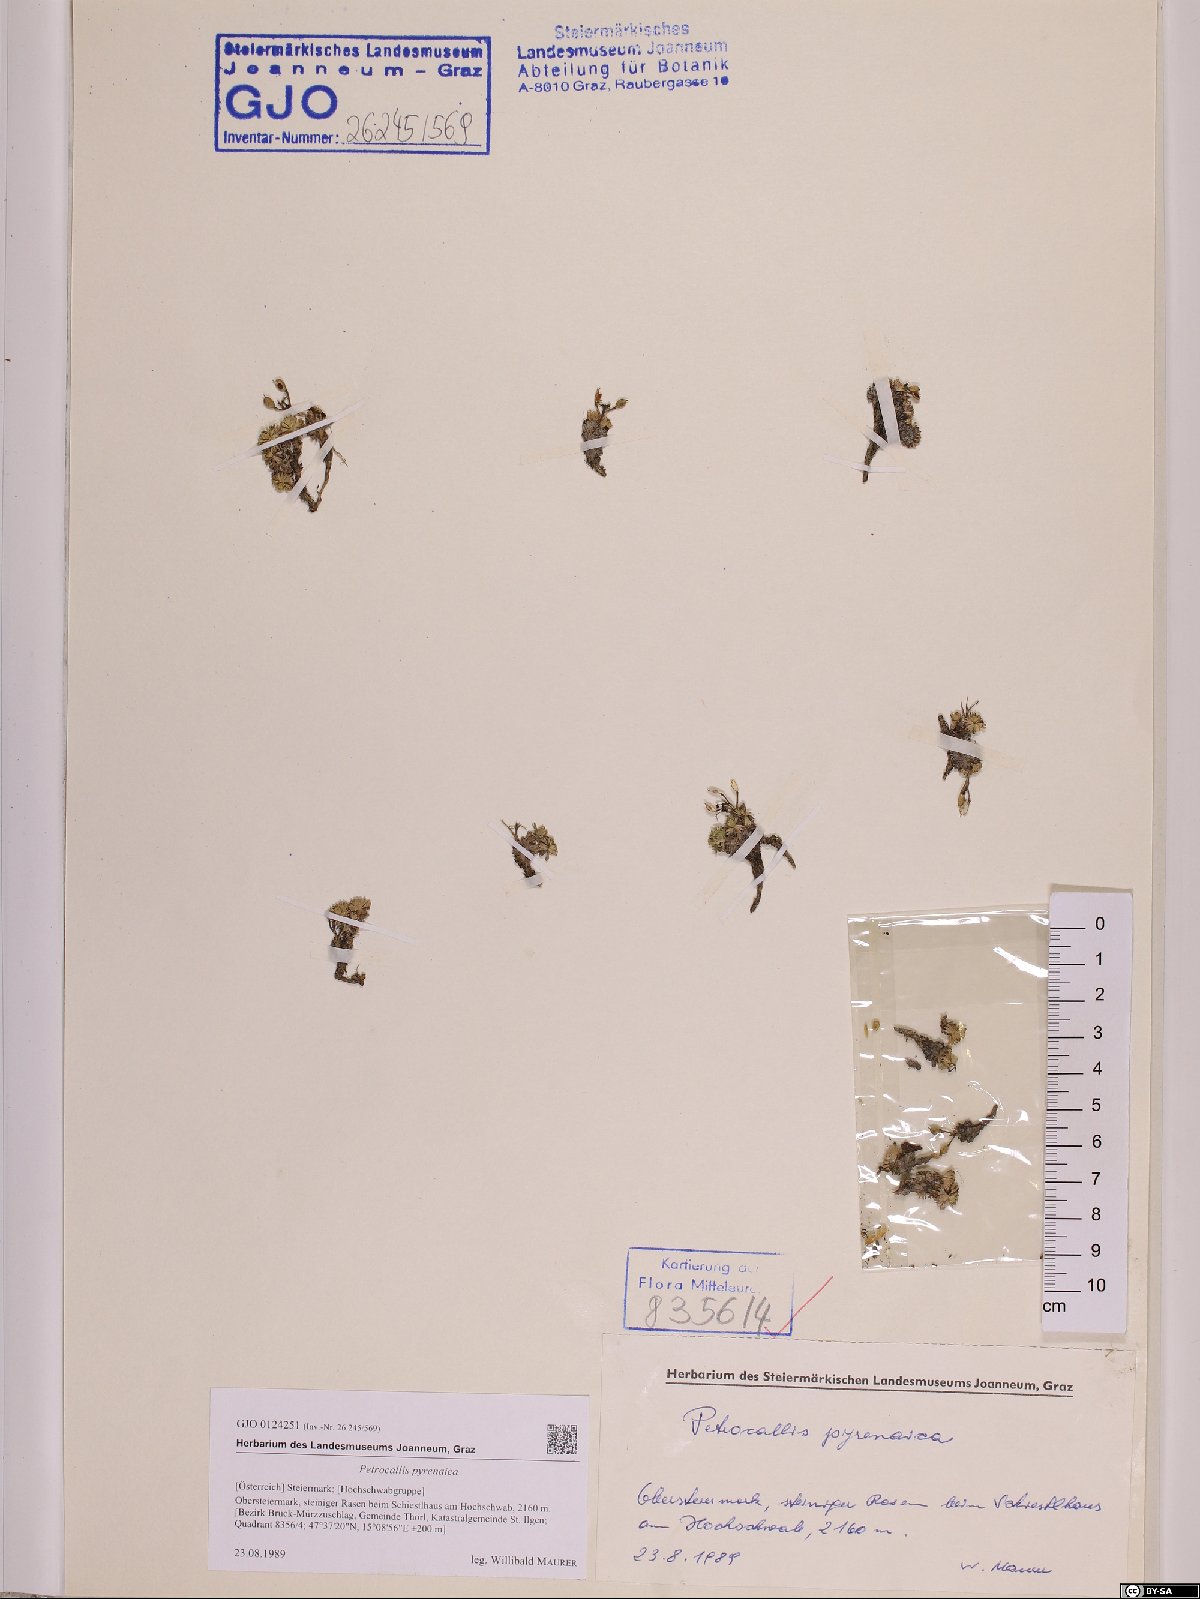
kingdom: Plantae
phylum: Tracheophyta
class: Magnoliopsida
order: Brassicales
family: Brassicaceae
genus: Petrocallis
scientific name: Petrocallis pyrenaica
